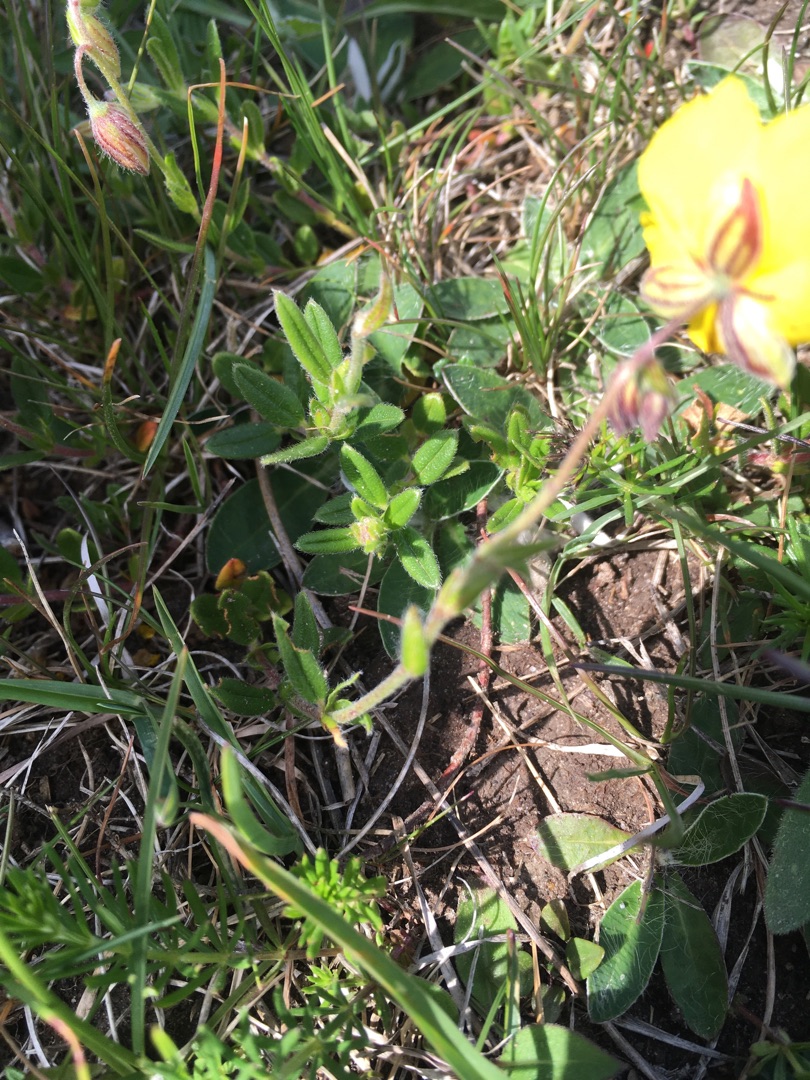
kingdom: Plantae
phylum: Tracheophyta
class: Magnoliopsida
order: Malvales
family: Cistaceae
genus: Helianthemum
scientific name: Helianthemum nummularium
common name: Soløje
